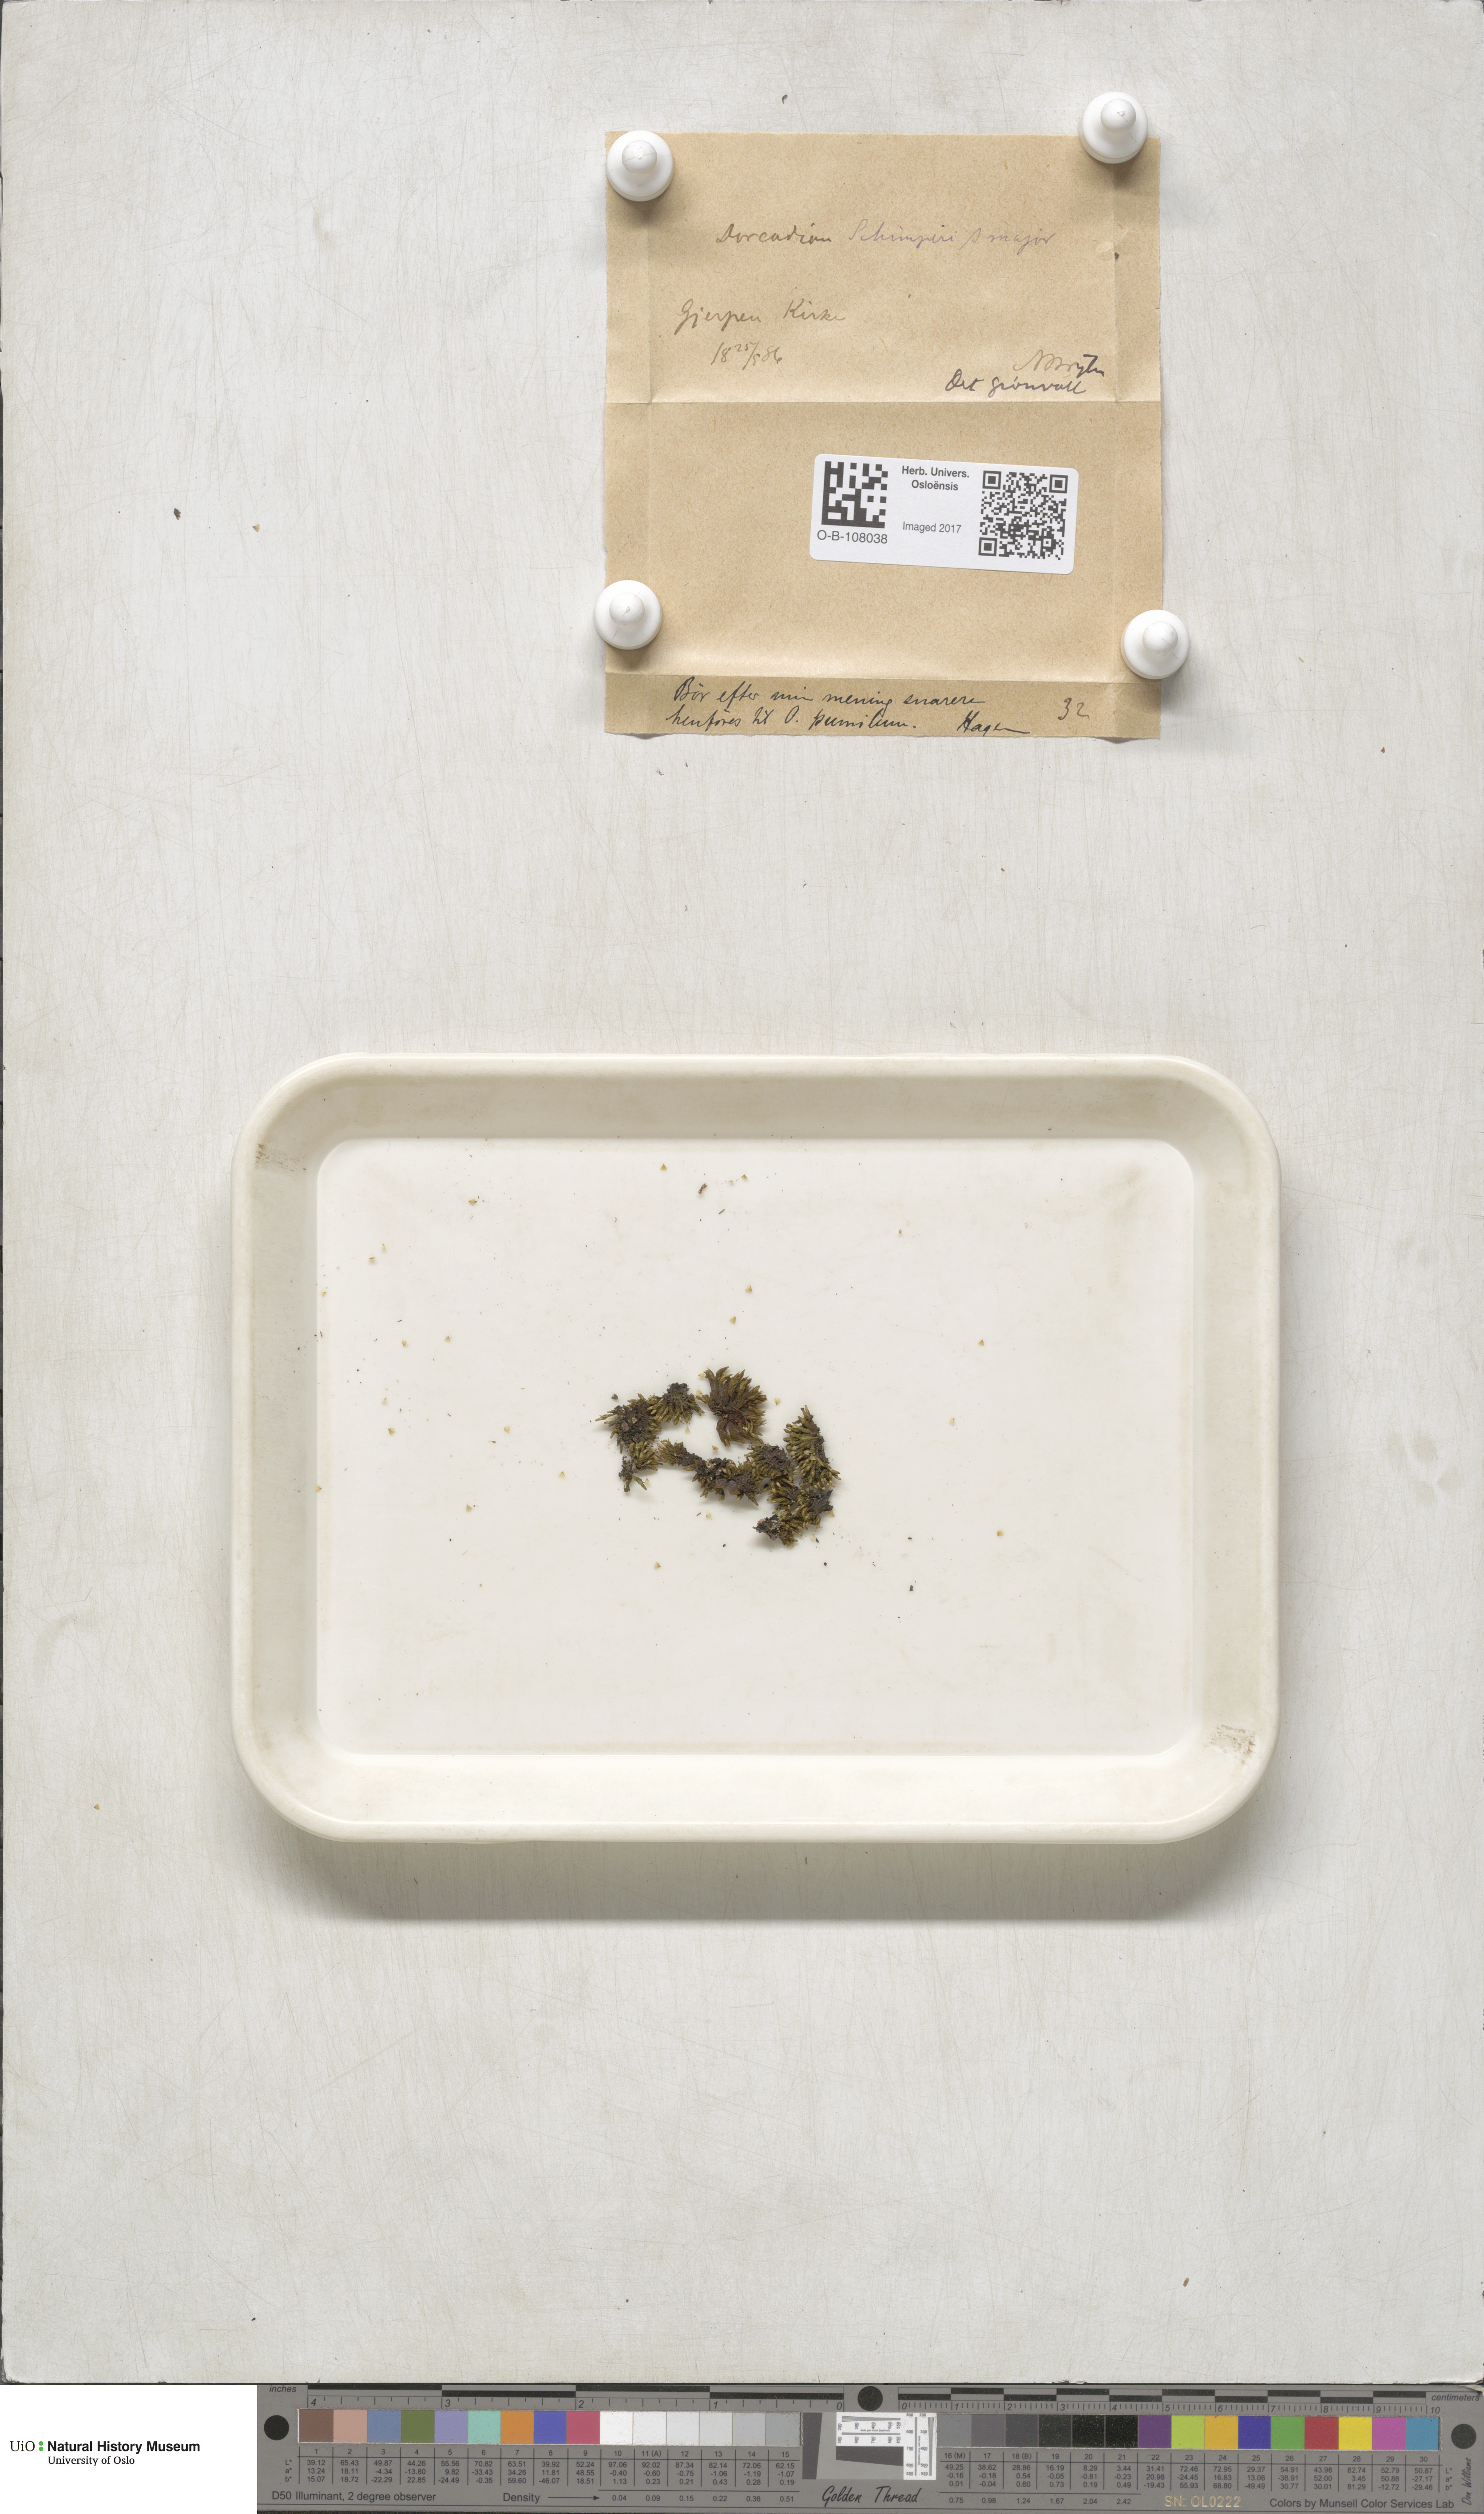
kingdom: Plantae
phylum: Bryophyta
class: Bryopsida
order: Orthotrichales
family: Orthotrichaceae
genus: Orthotrichum
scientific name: Orthotrichum pumilum
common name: Dwarf bristle moss
